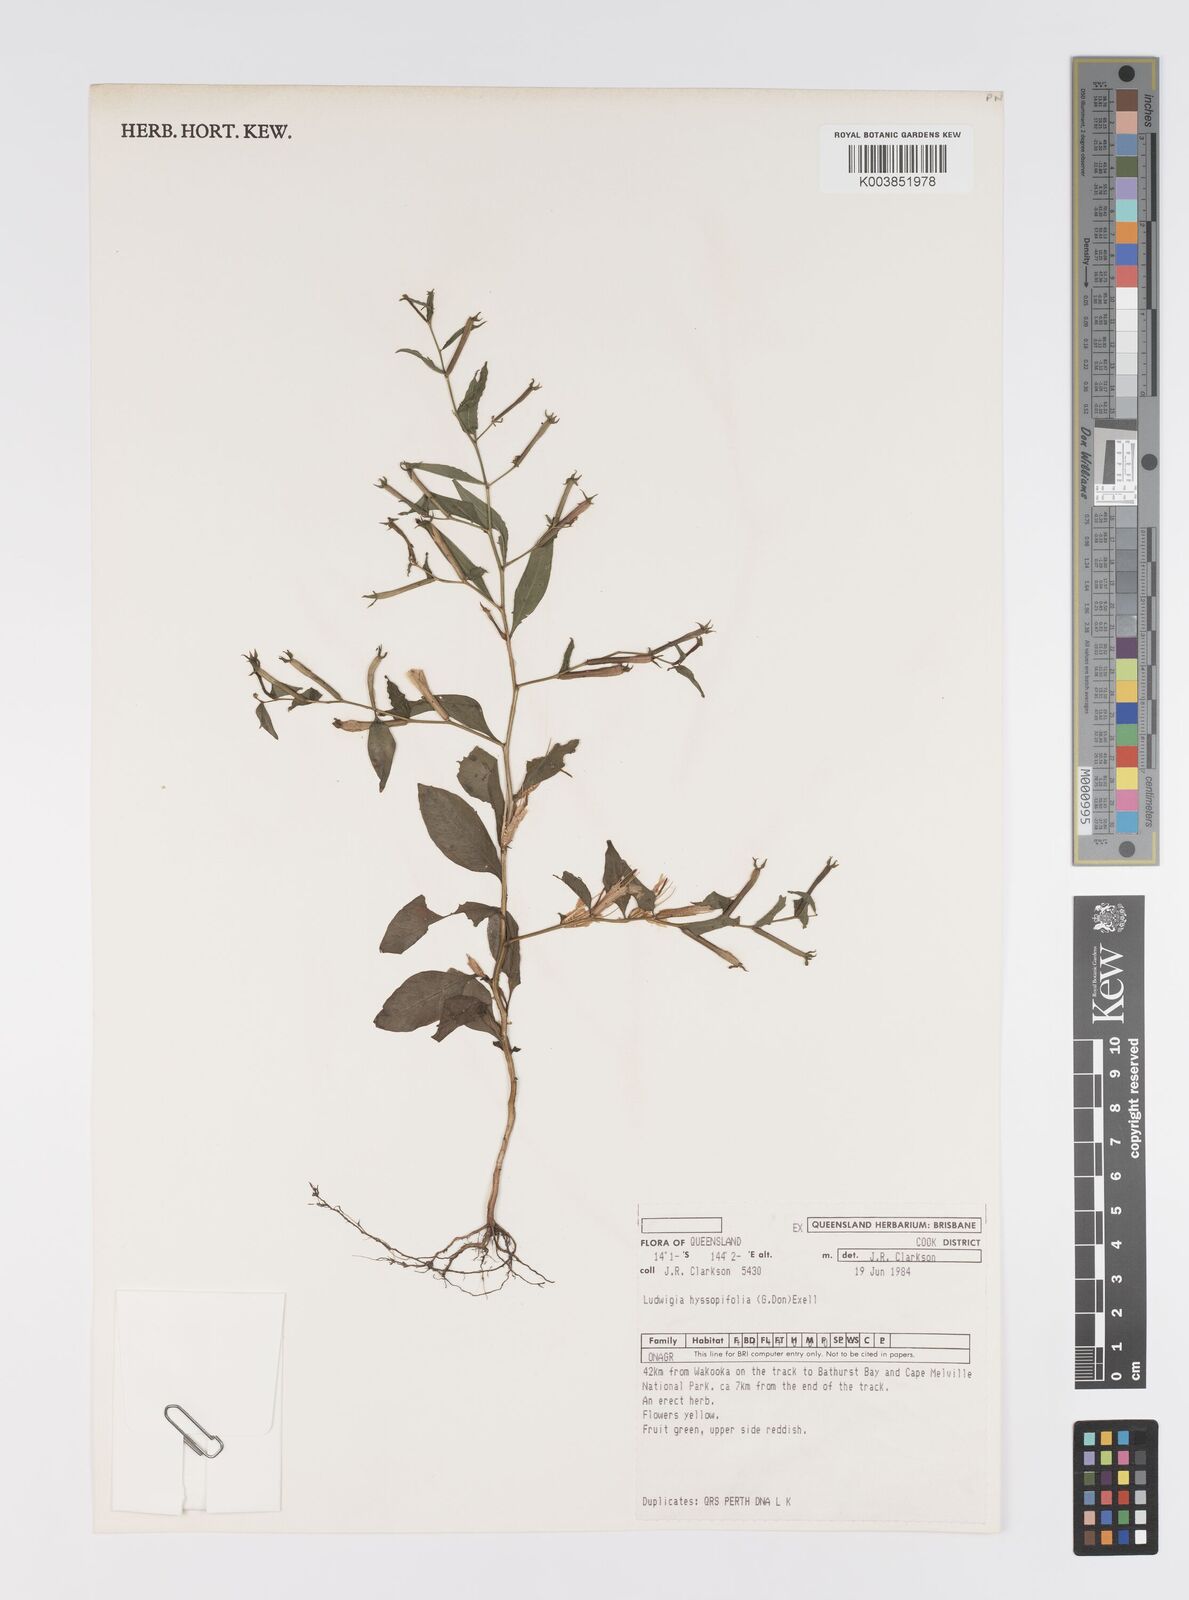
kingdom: Plantae
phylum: Tracheophyta
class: Magnoliopsida
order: Myrtales
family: Onagraceae
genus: Ludwigia
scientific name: Ludwigia hyssopifolia
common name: Linear leaf water primrose
